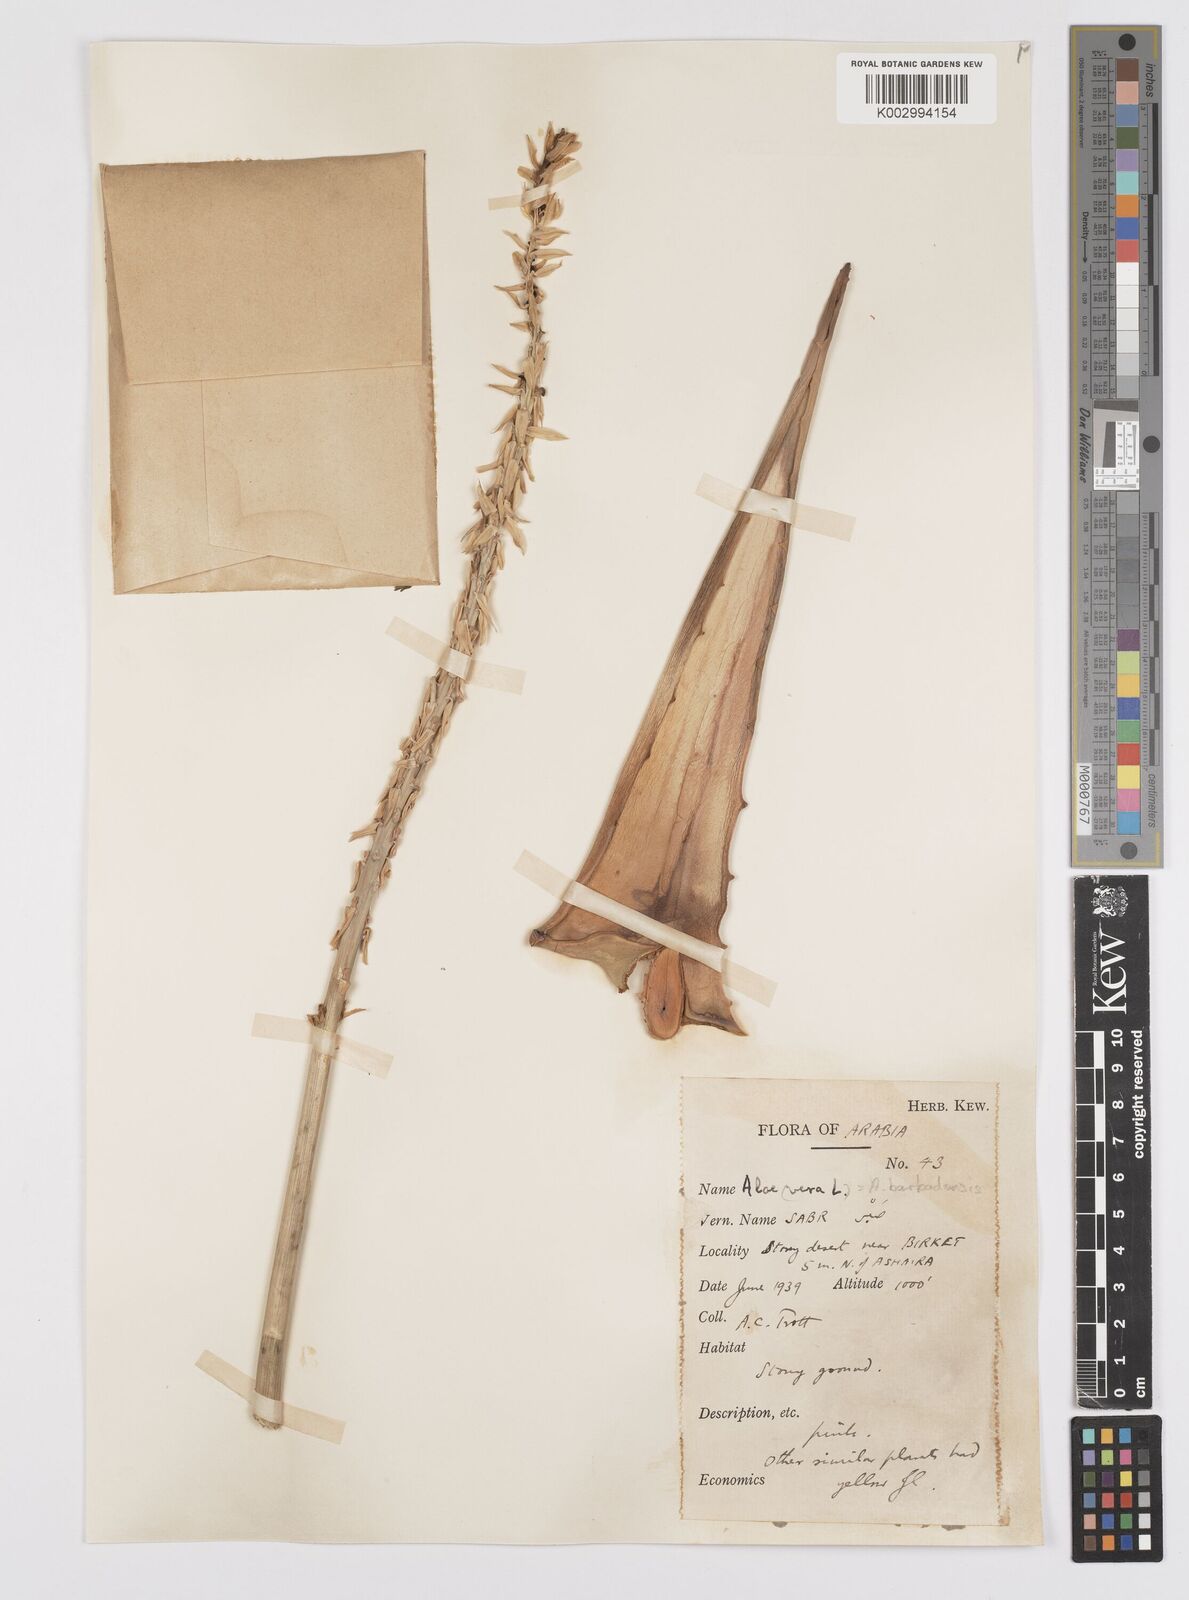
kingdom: Plantae
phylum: Tracheophyta
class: Liliopsida
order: Asparagales
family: Asphodelaceae
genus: Aloe
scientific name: Aloe menachensis
